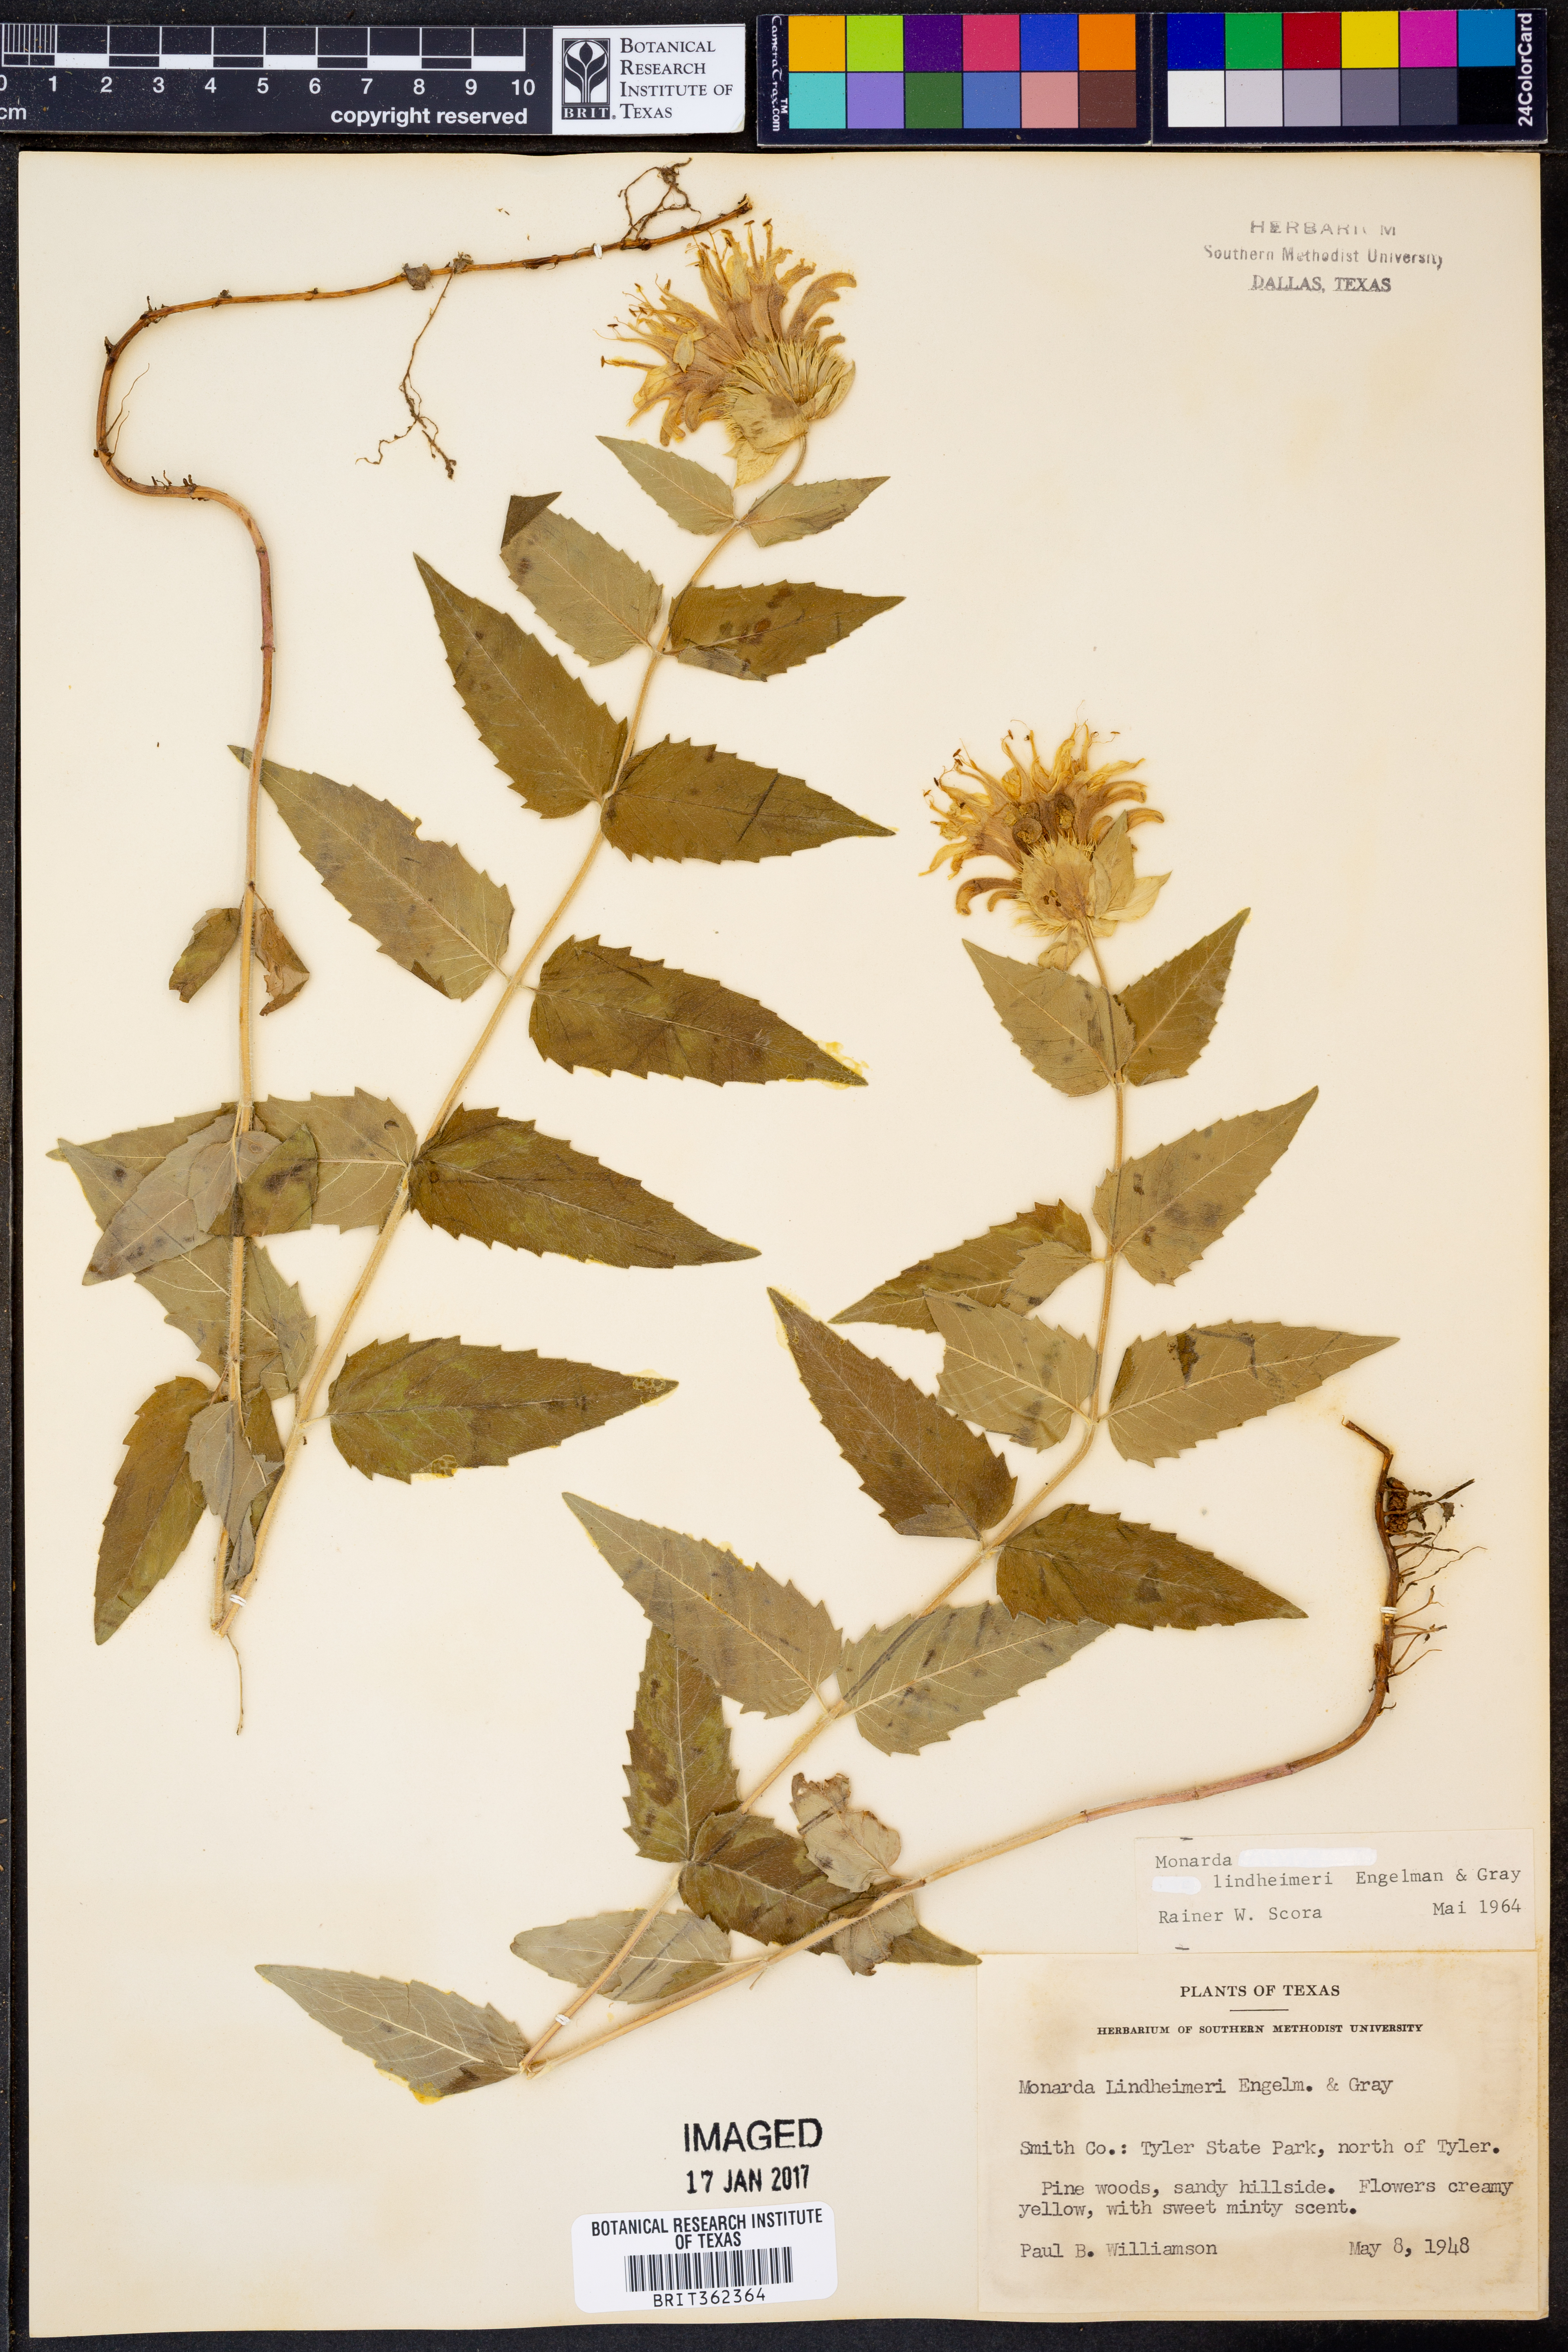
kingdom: Plantae
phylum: Tracheophyta
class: Magnoliopsida
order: Lamiales
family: Lamiaceae
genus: Monarda
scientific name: Monarda lindheimeri
